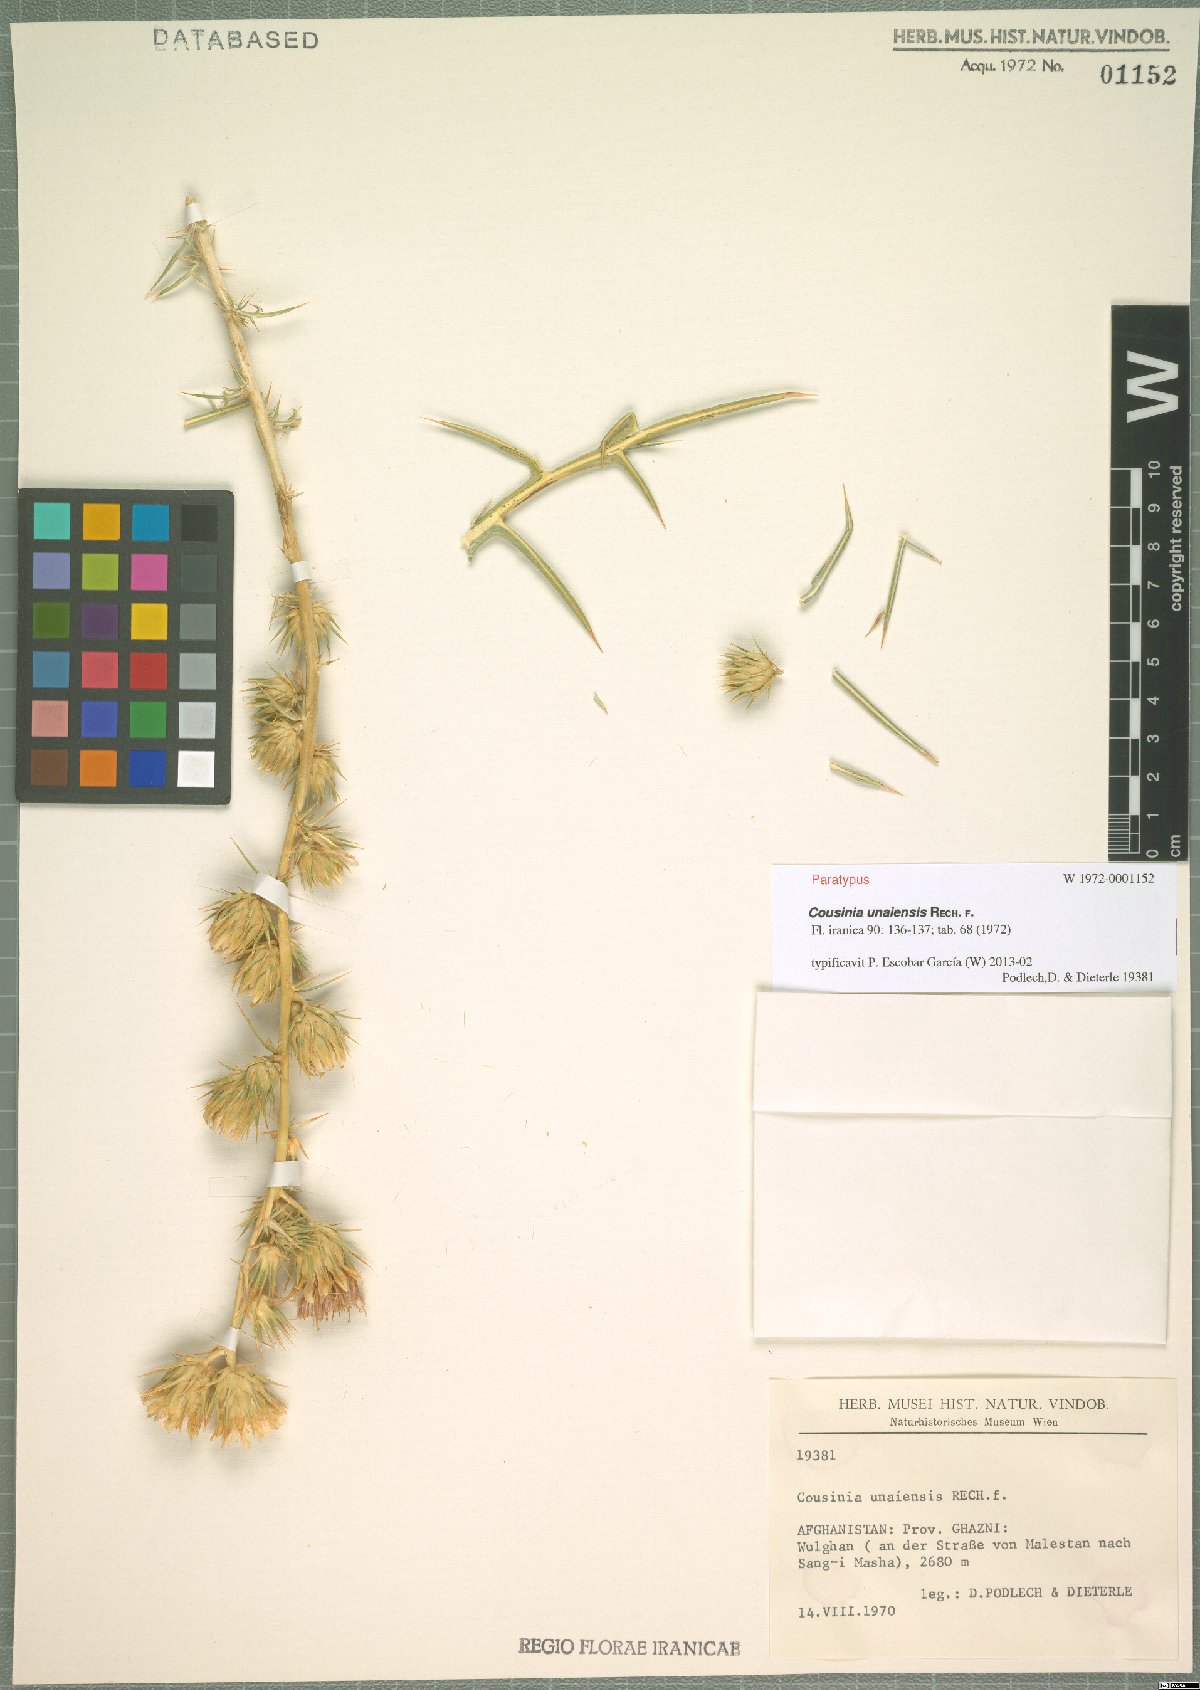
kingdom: Plantae
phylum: Tracheophyta
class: Magnoliopsida
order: Asterales
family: Asteraceae
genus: Cousinia
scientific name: Cousinia unaiensis
